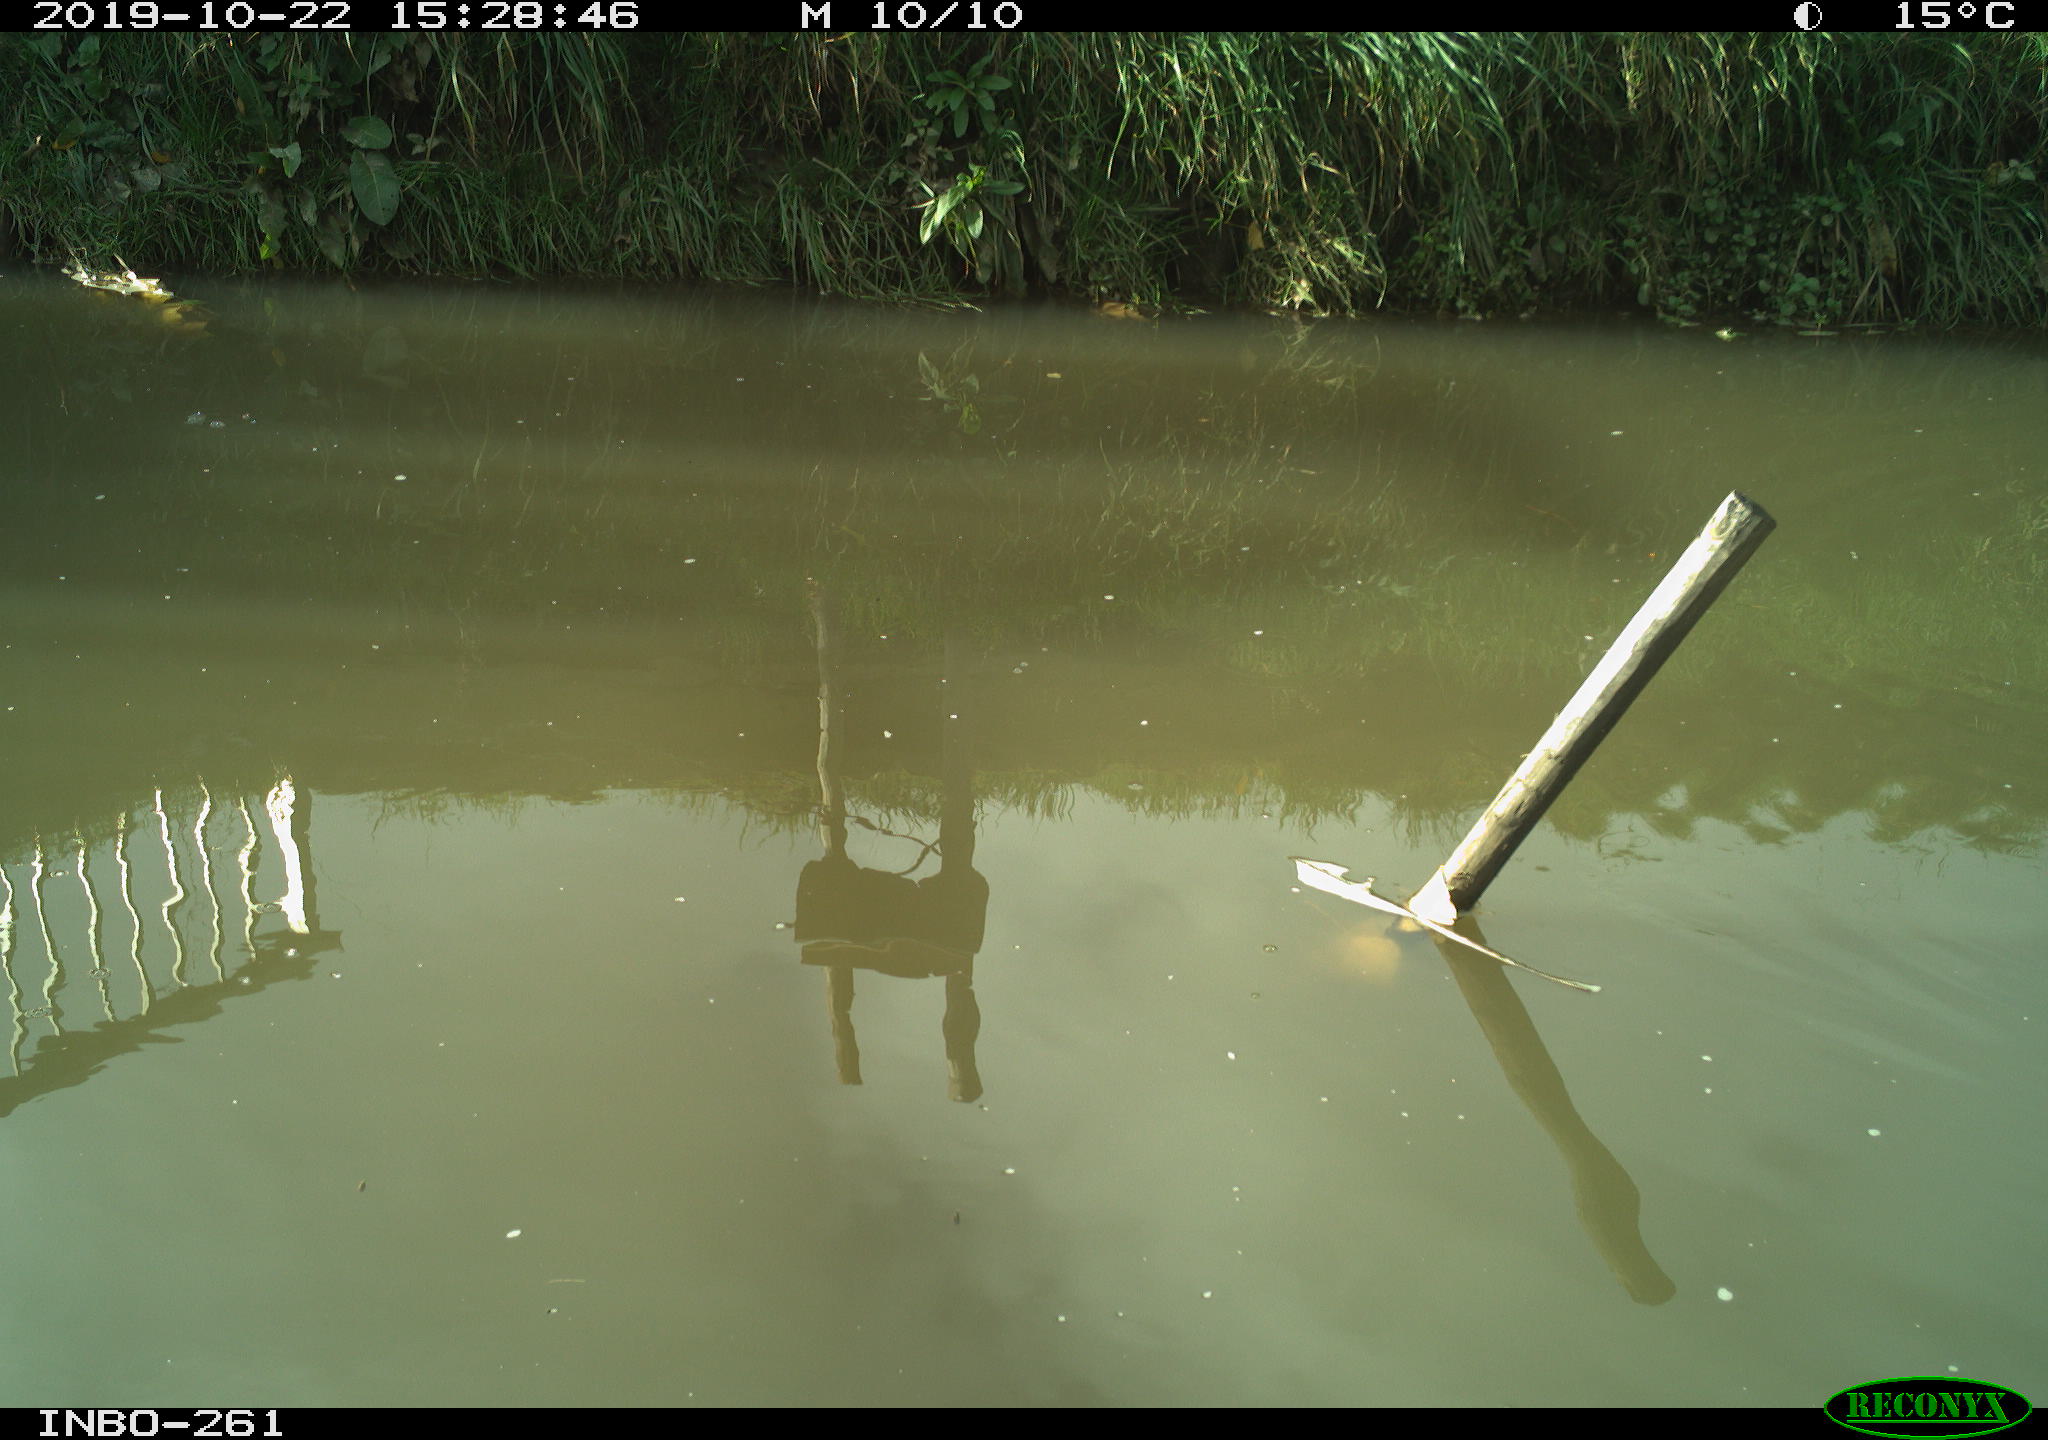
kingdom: Animalia
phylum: Chordata
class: Aves
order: Gruiformes
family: Rallidae
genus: Gallinula
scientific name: Gallinula chloropus
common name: Common moorhen
